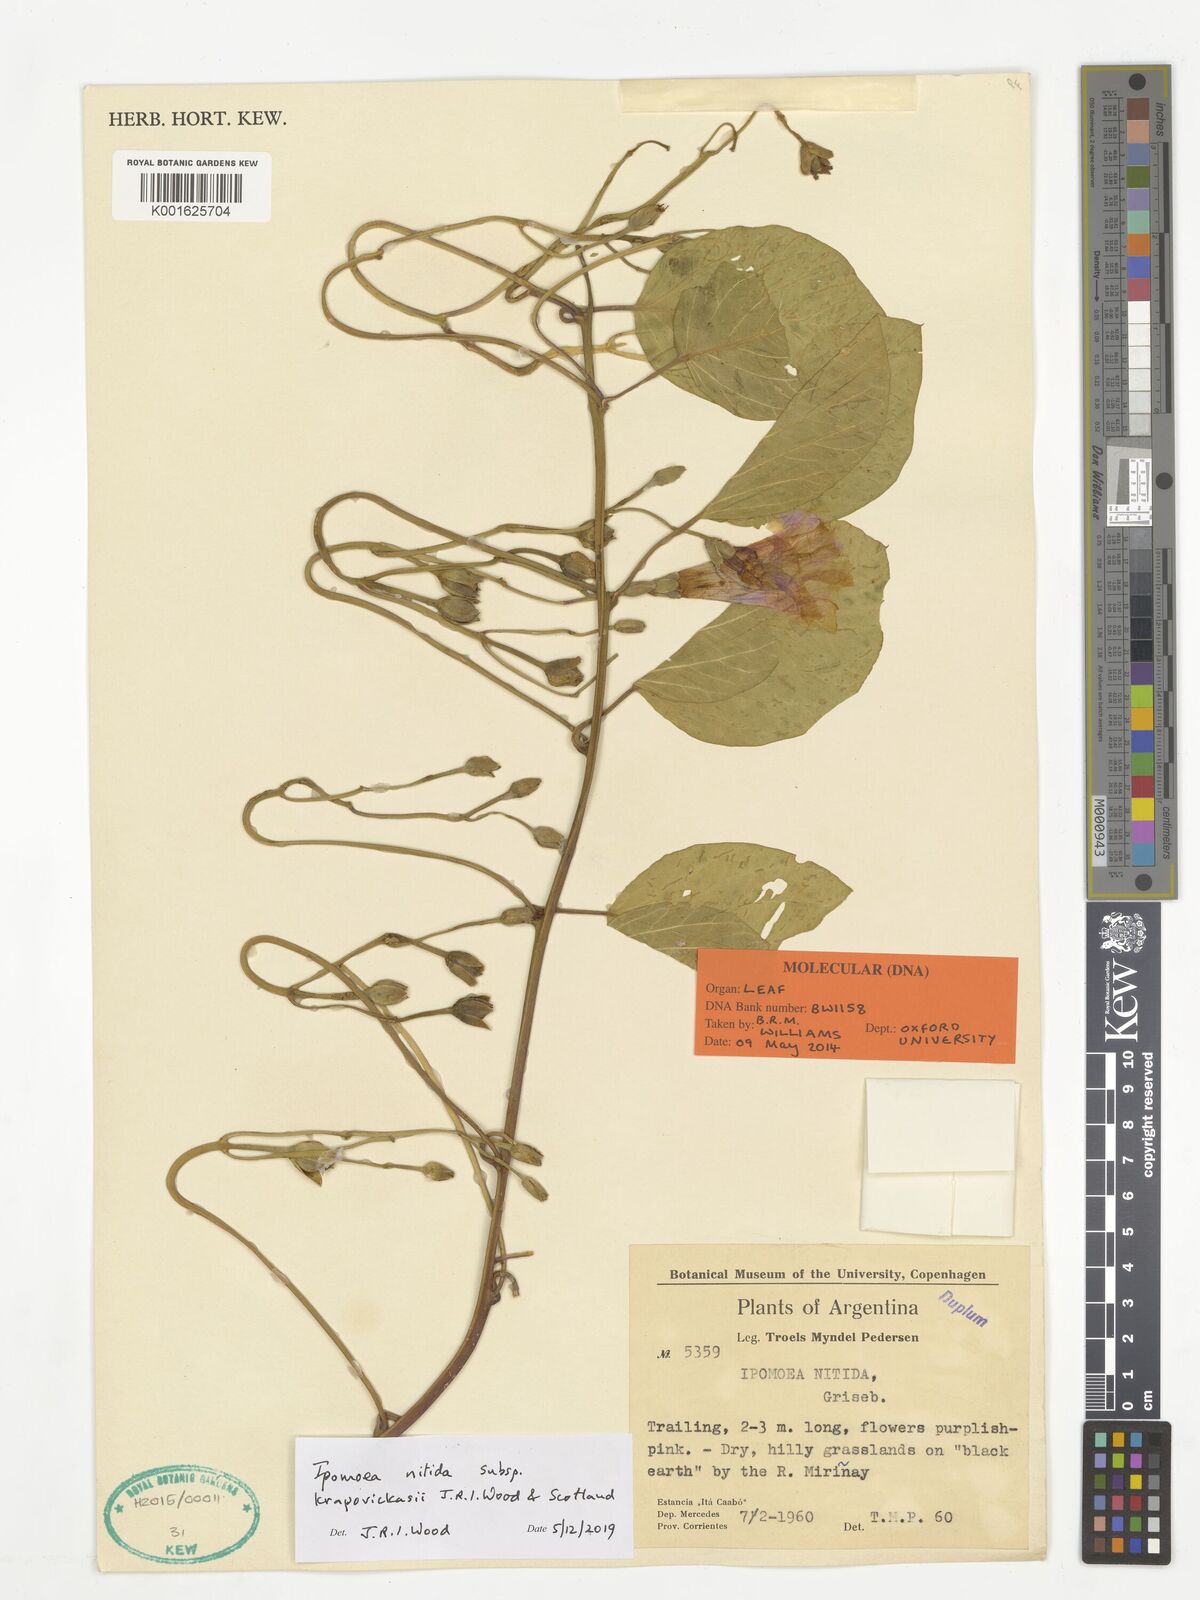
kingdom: Plantae
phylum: Tracheophyta
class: Magnoliopsida
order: Solanales
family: Convolvulaceae
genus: Ipomoea
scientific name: Ipomoea nitida
